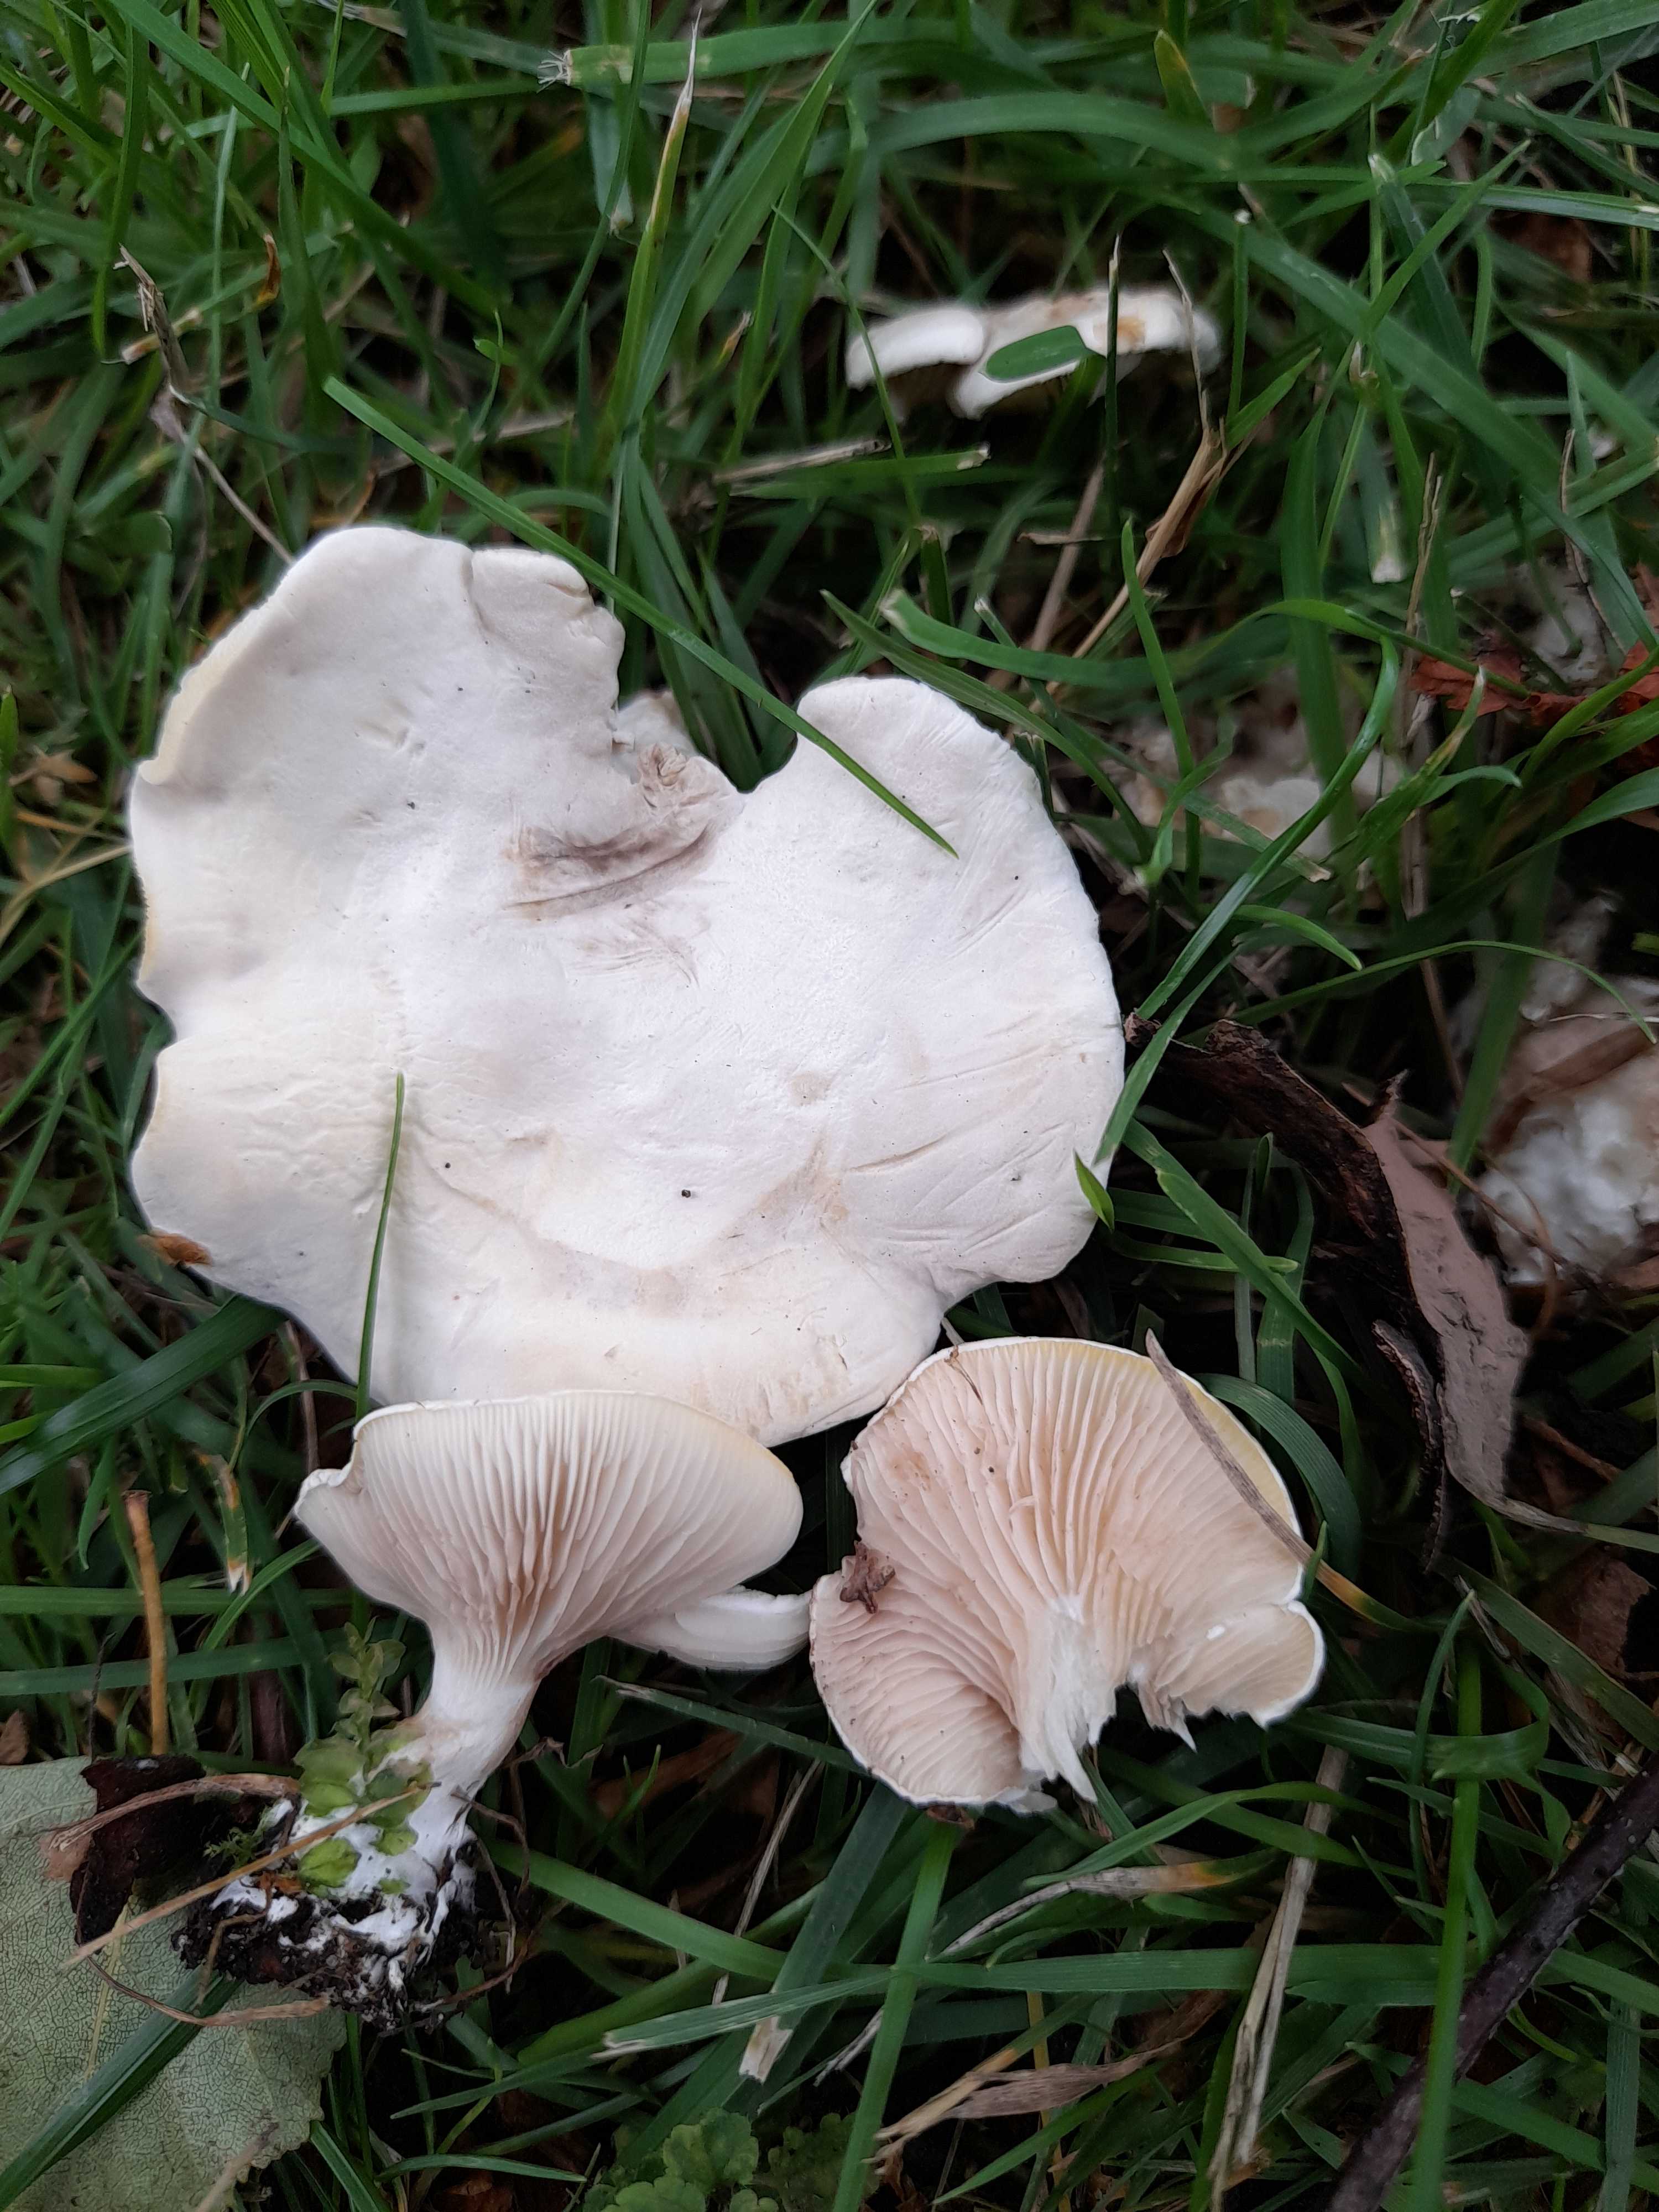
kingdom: Fungi
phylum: Basidiomycota
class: Agaricomycetes
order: Agaricales
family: Entolomataceae
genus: Clitopilus
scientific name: Clitopilus prunulus
